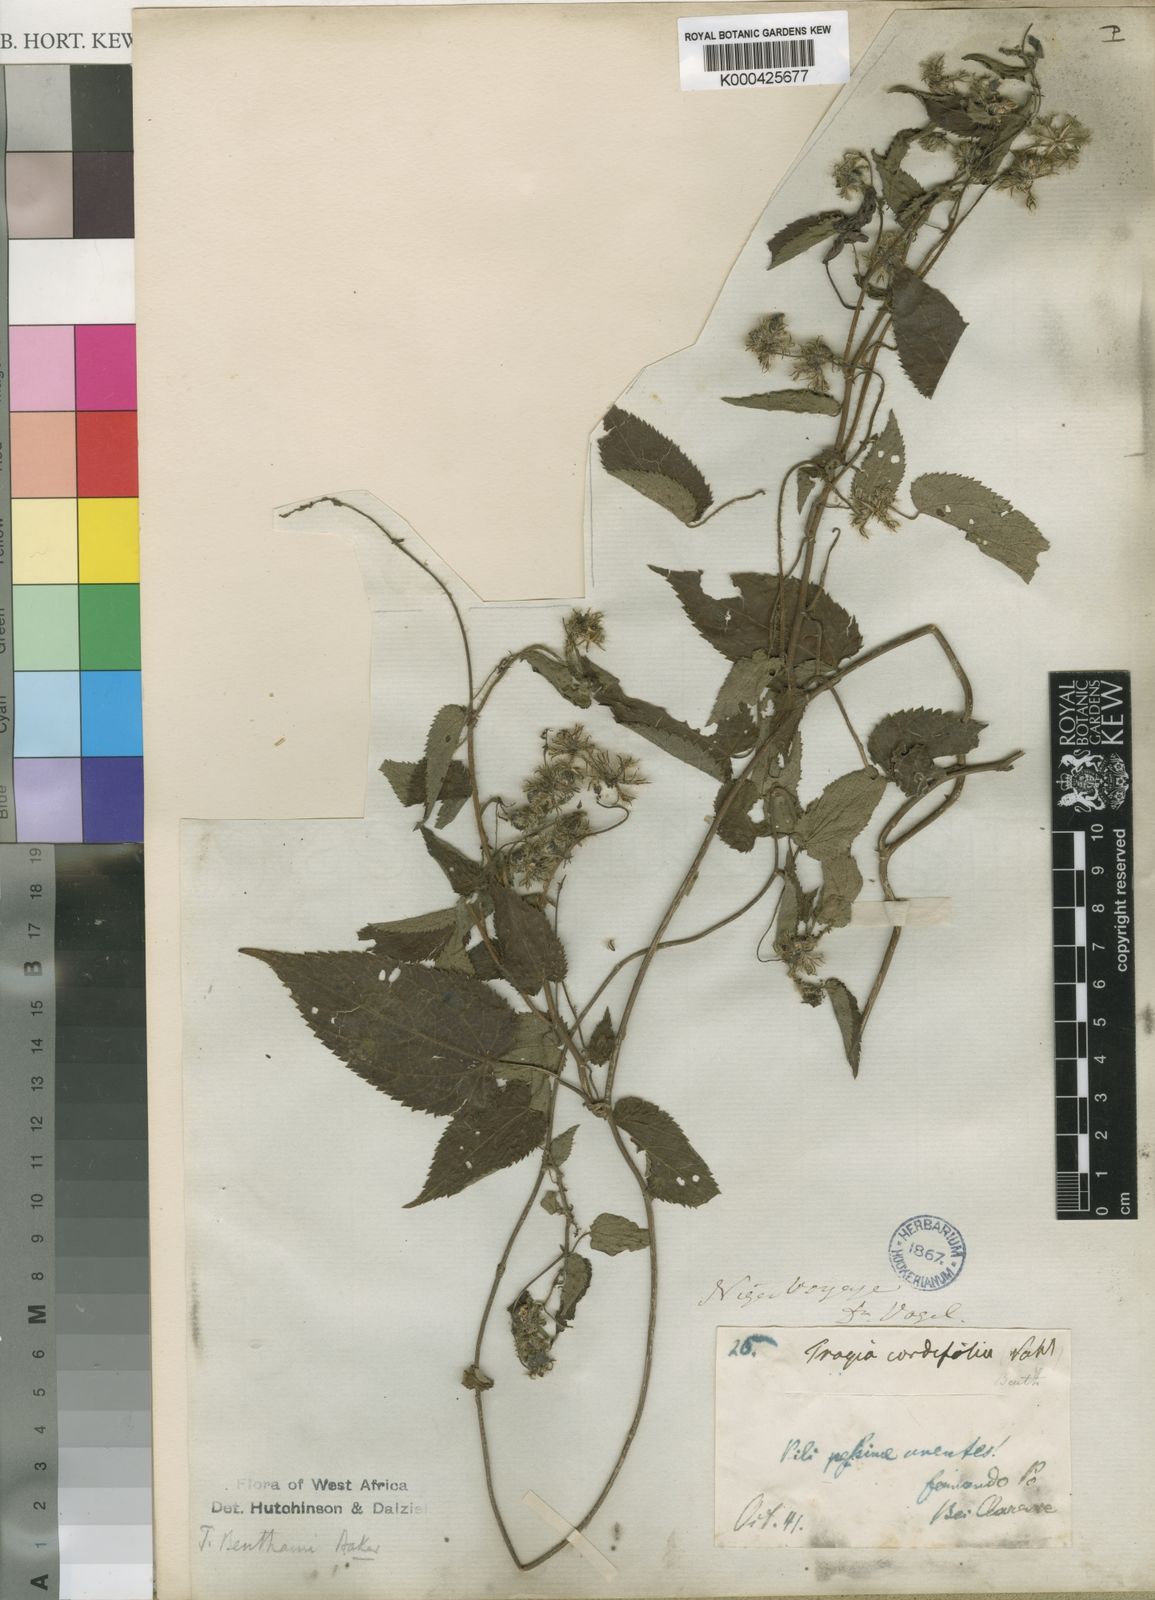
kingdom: Plantae
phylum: Tracheophyta
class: Magnoliopsida
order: Malpighiales
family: Euphorbiaceae
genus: Tragia
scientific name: Tragia benthamii
